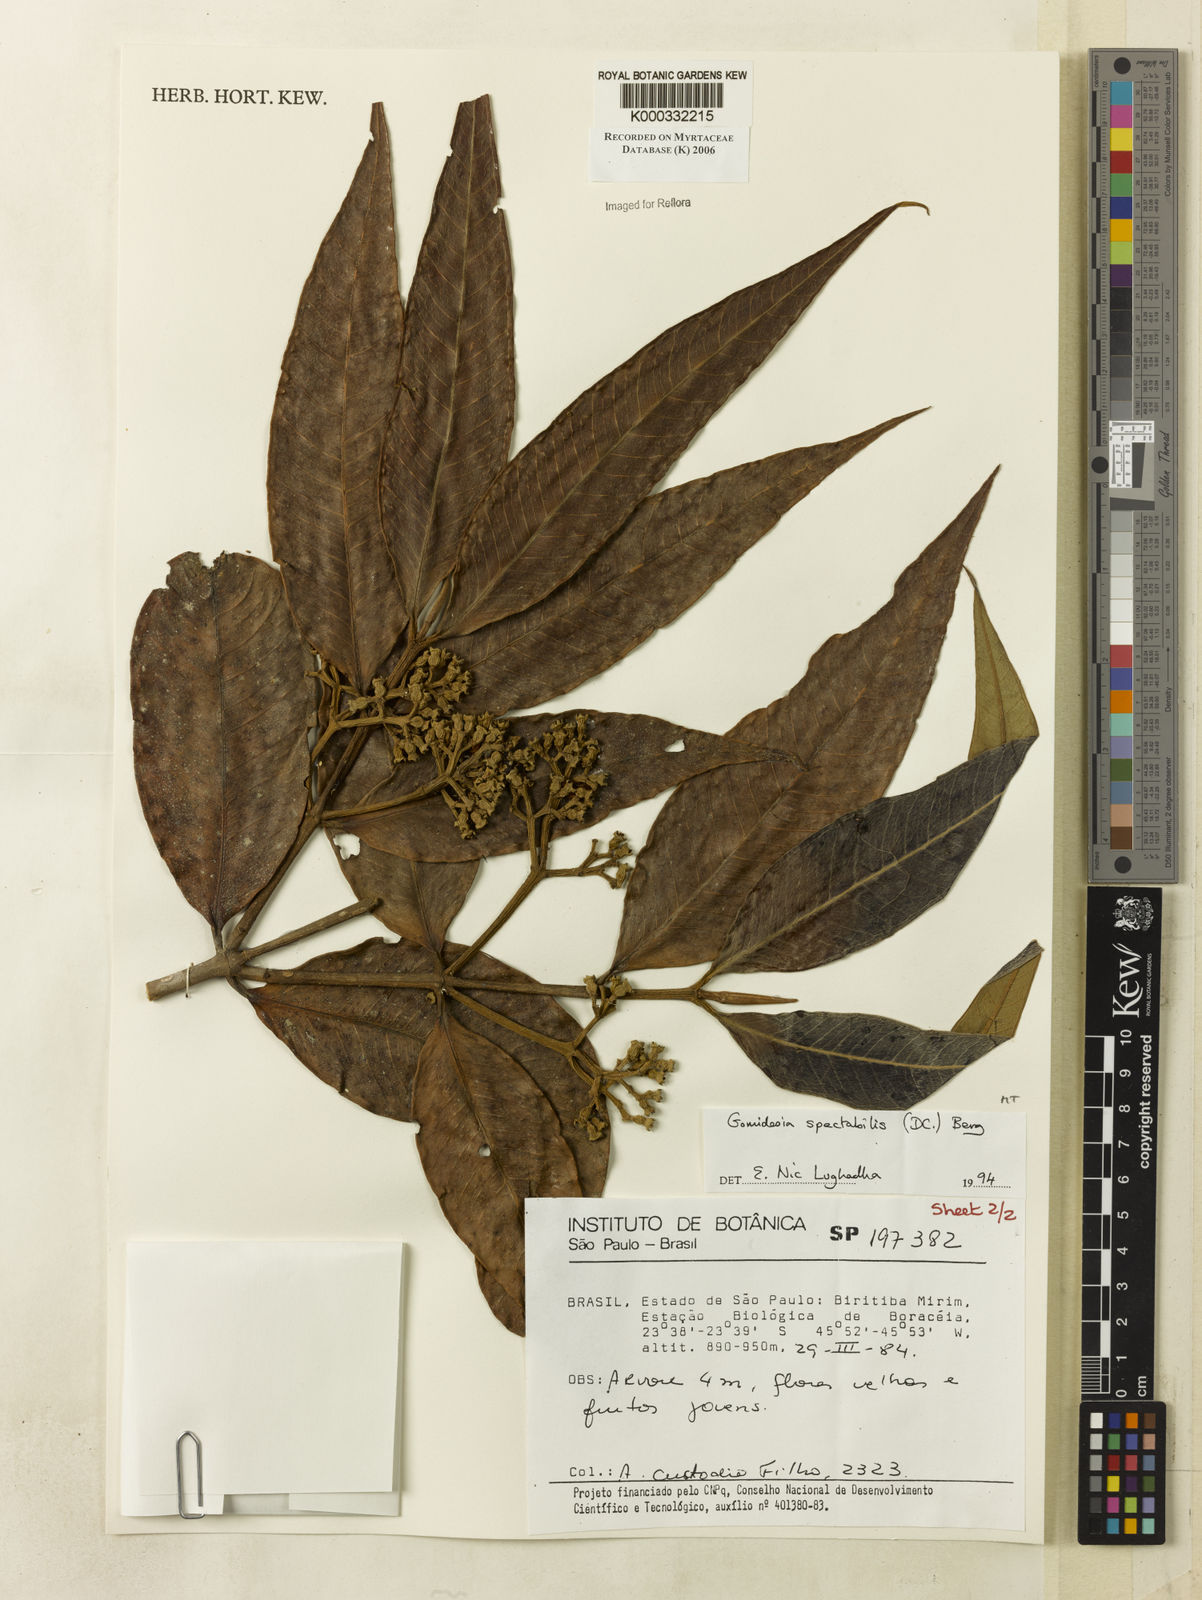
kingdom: Plantae
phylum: Tracheophyta
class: Magnoliopsida
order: Myrtales
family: Myrtaceae
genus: Myrcia
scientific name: Myrcia spectabilis
